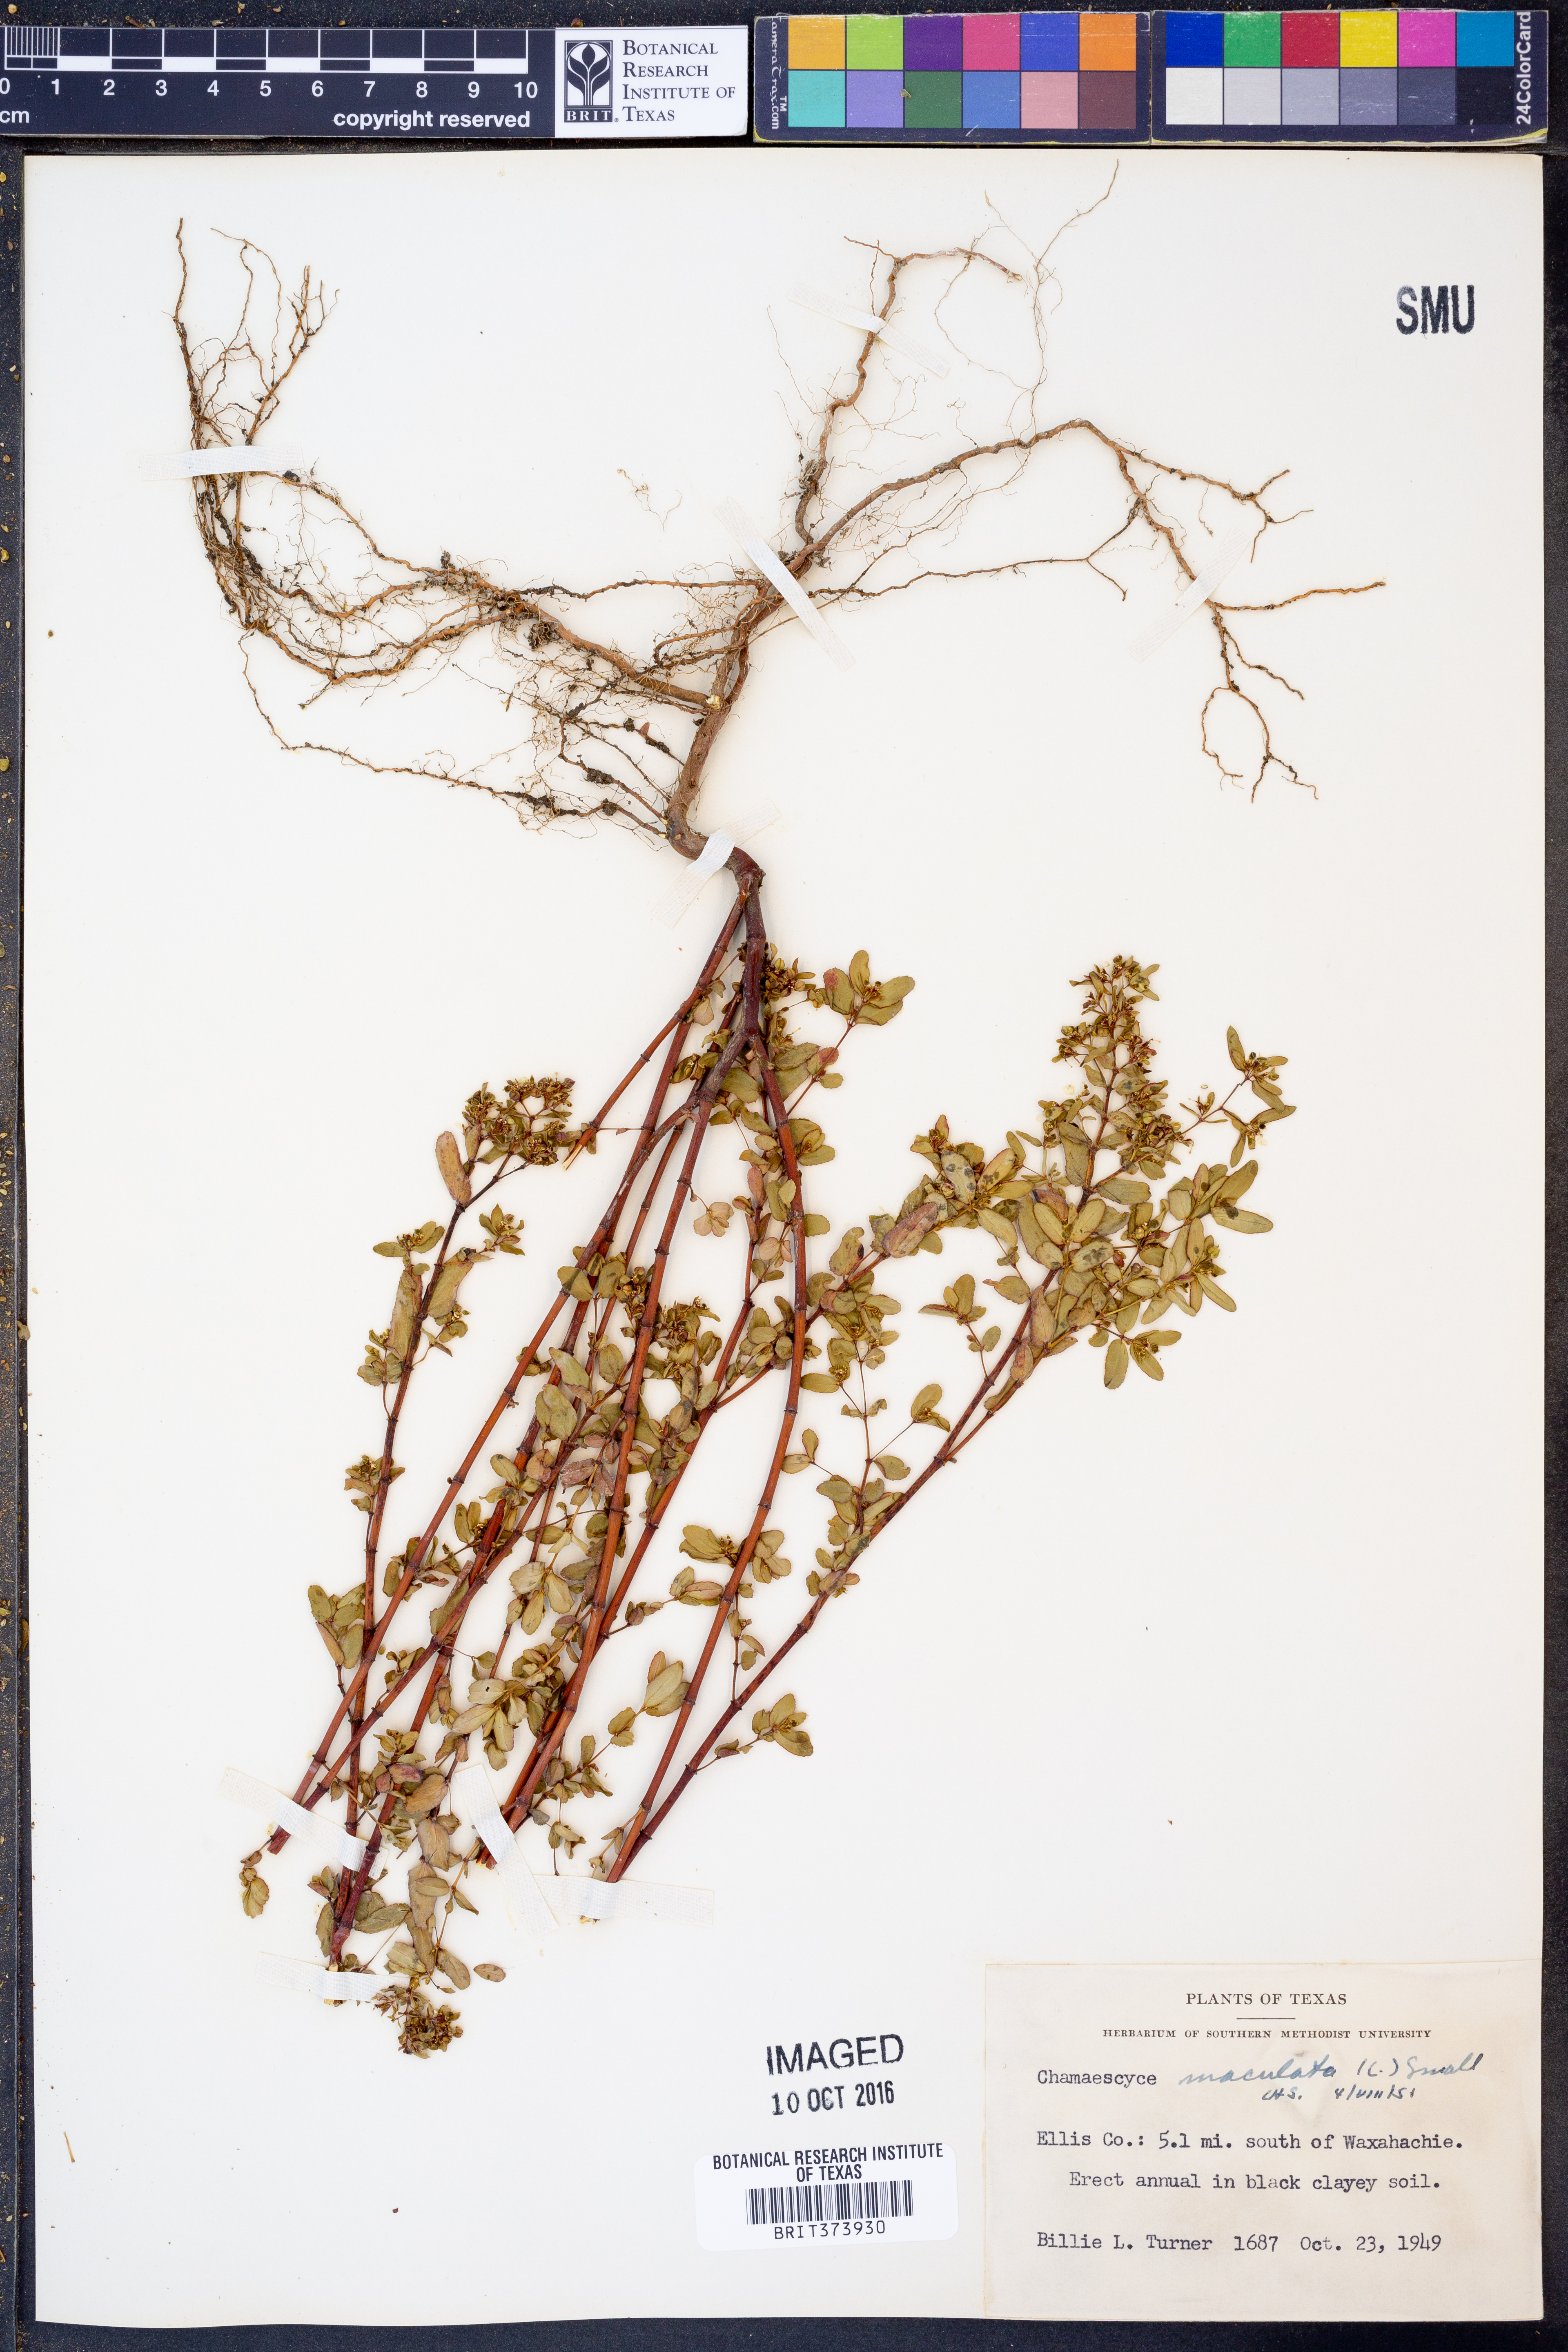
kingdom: Plantae
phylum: Tracheophyta
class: Magnoliopsida
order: Malpighiales
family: Euphorbiaceae
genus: Euphorbia
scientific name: Euphorbia maculata
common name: Spotted spurge
